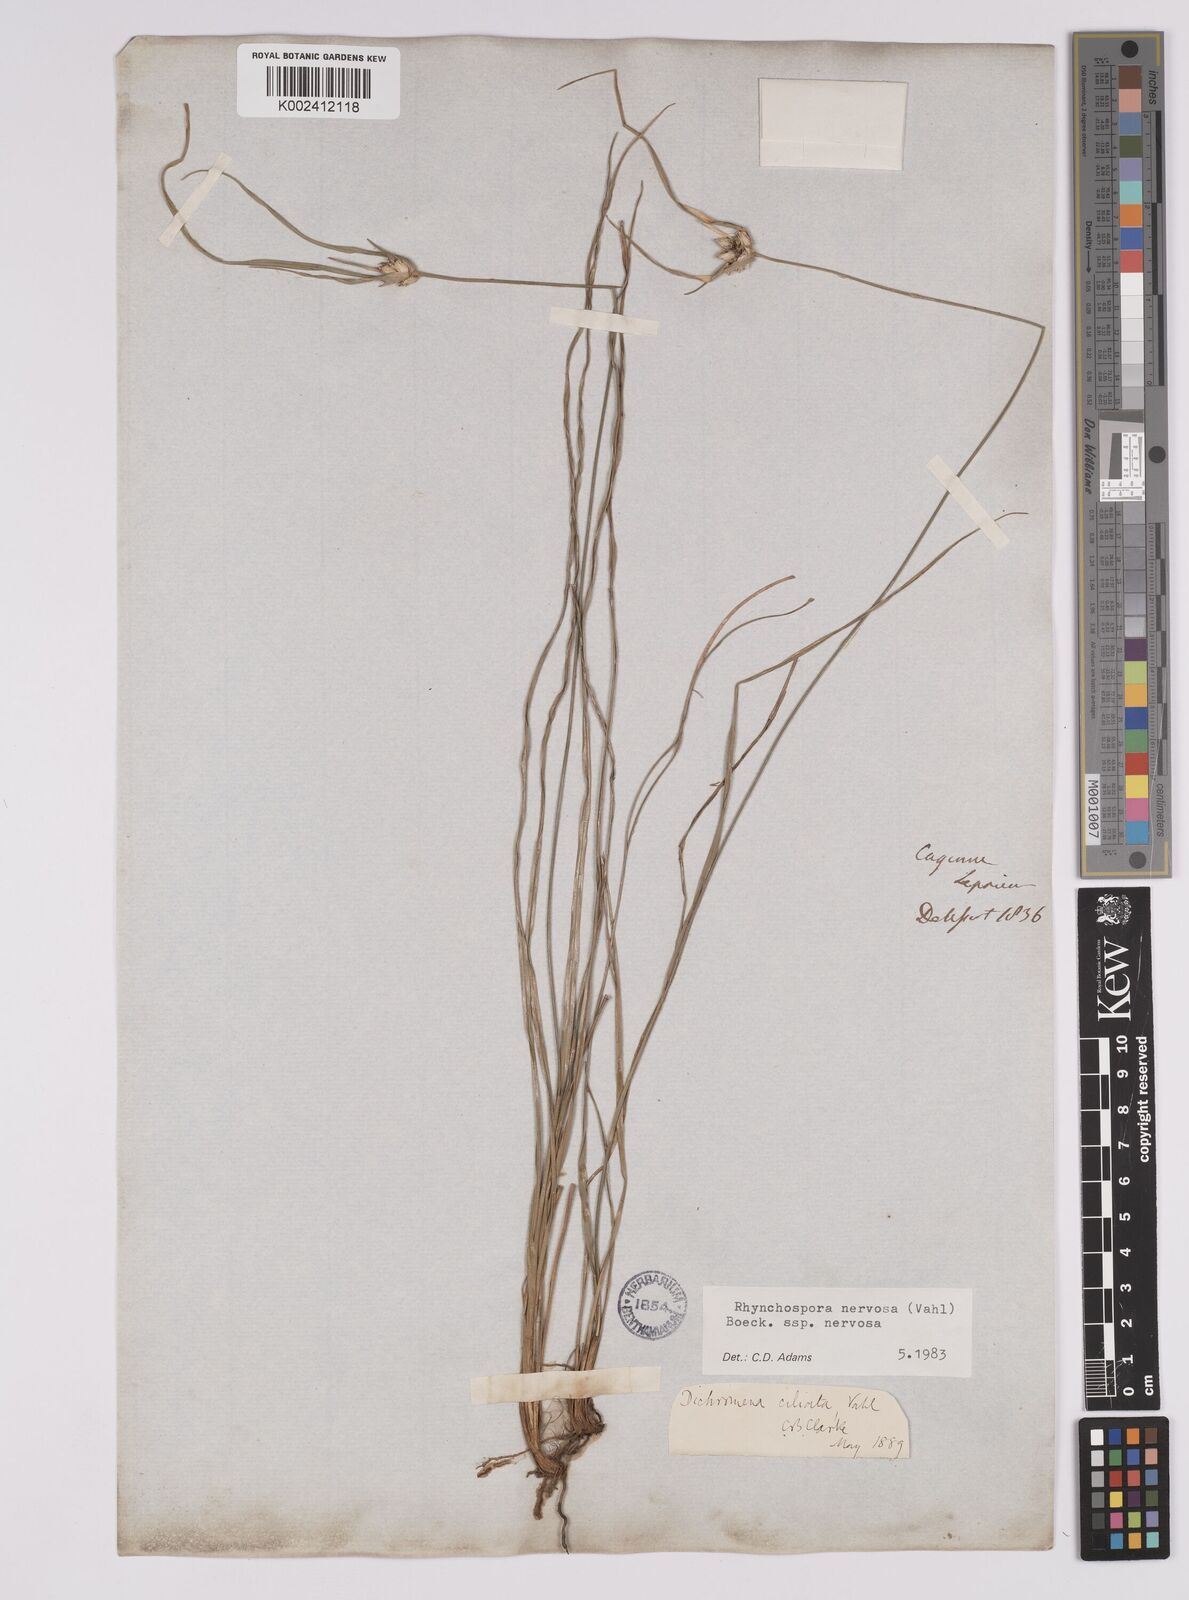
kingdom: Plantae
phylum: Tracheophyta
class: Liliopsida
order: Poales
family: Cyperaceae
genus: Rhynchospora
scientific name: Rhynchospora nervosa
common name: Star sedge
